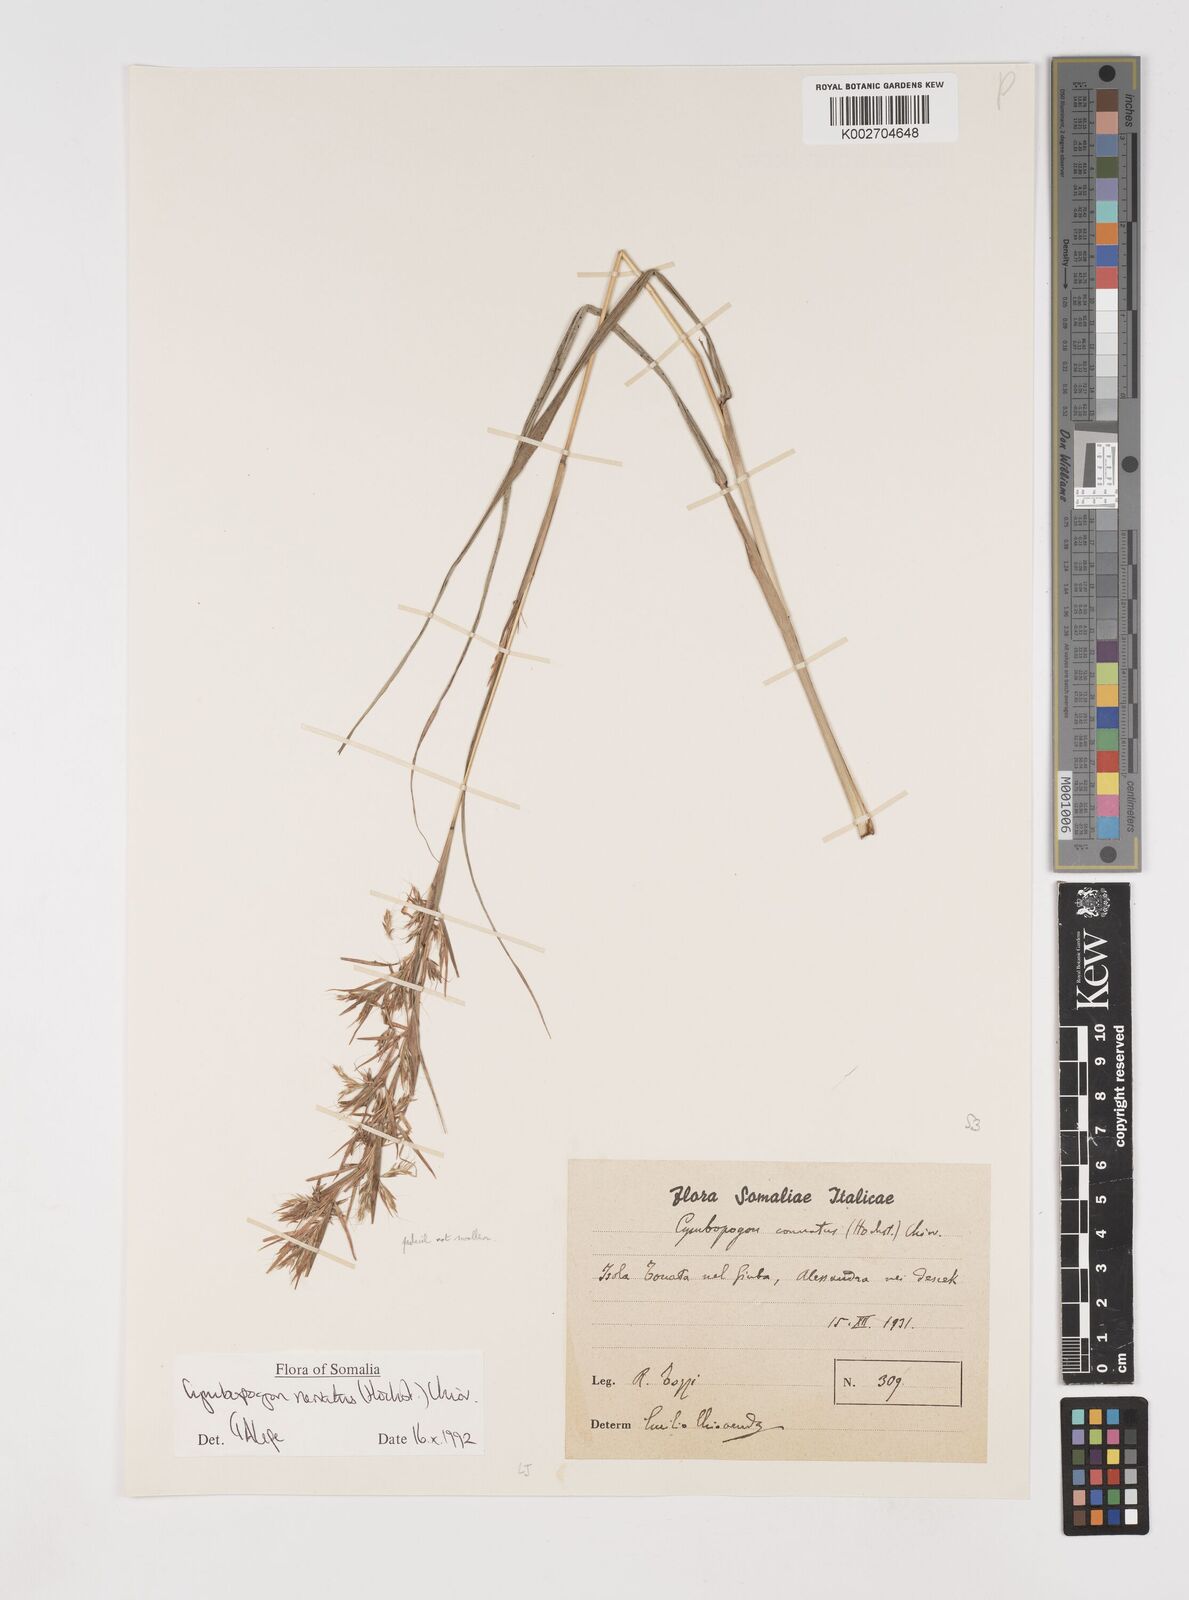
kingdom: Plantae
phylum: Tracheophyta
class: Liliopsida
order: Poales
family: Poaceae
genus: Cymbopogon
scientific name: Cymbopogon nervatus
